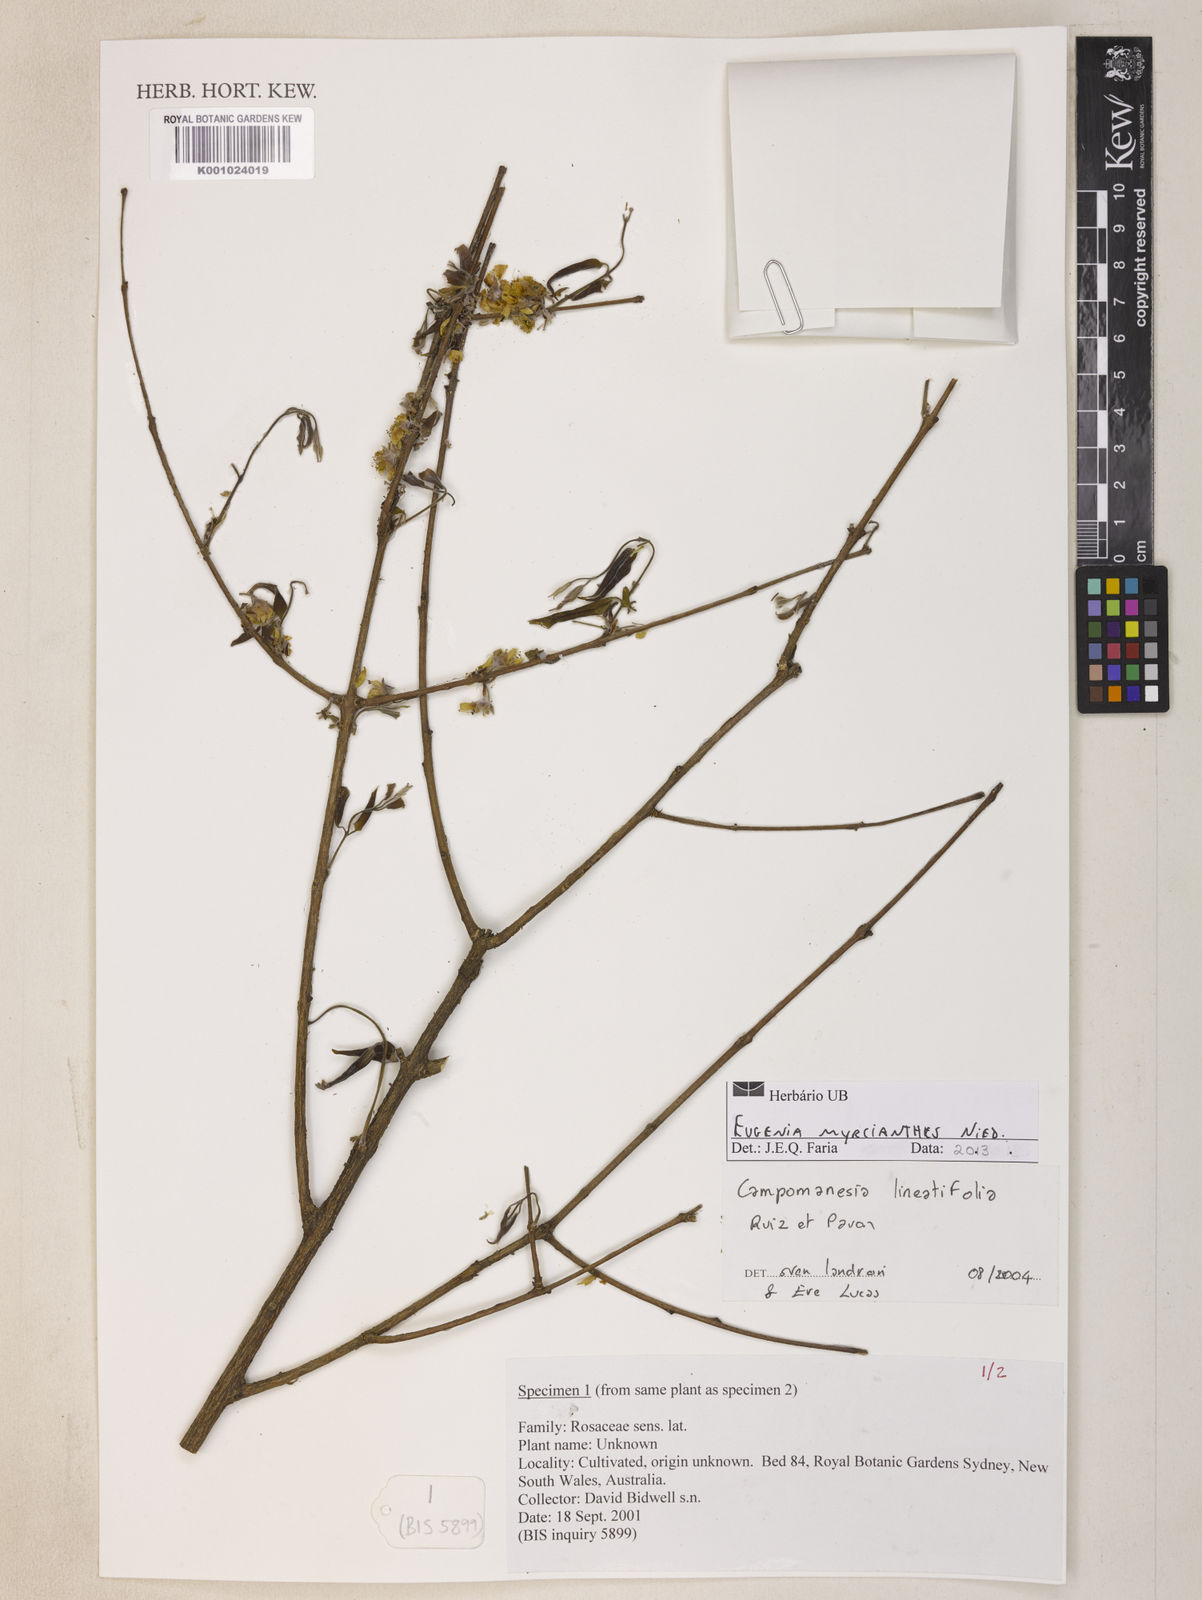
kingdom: Plantae
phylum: Tracheophyta
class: Magnoliopsida
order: Myrtales
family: Myrtaceae
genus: Eugenia
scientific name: Eugenia myrcianthes
